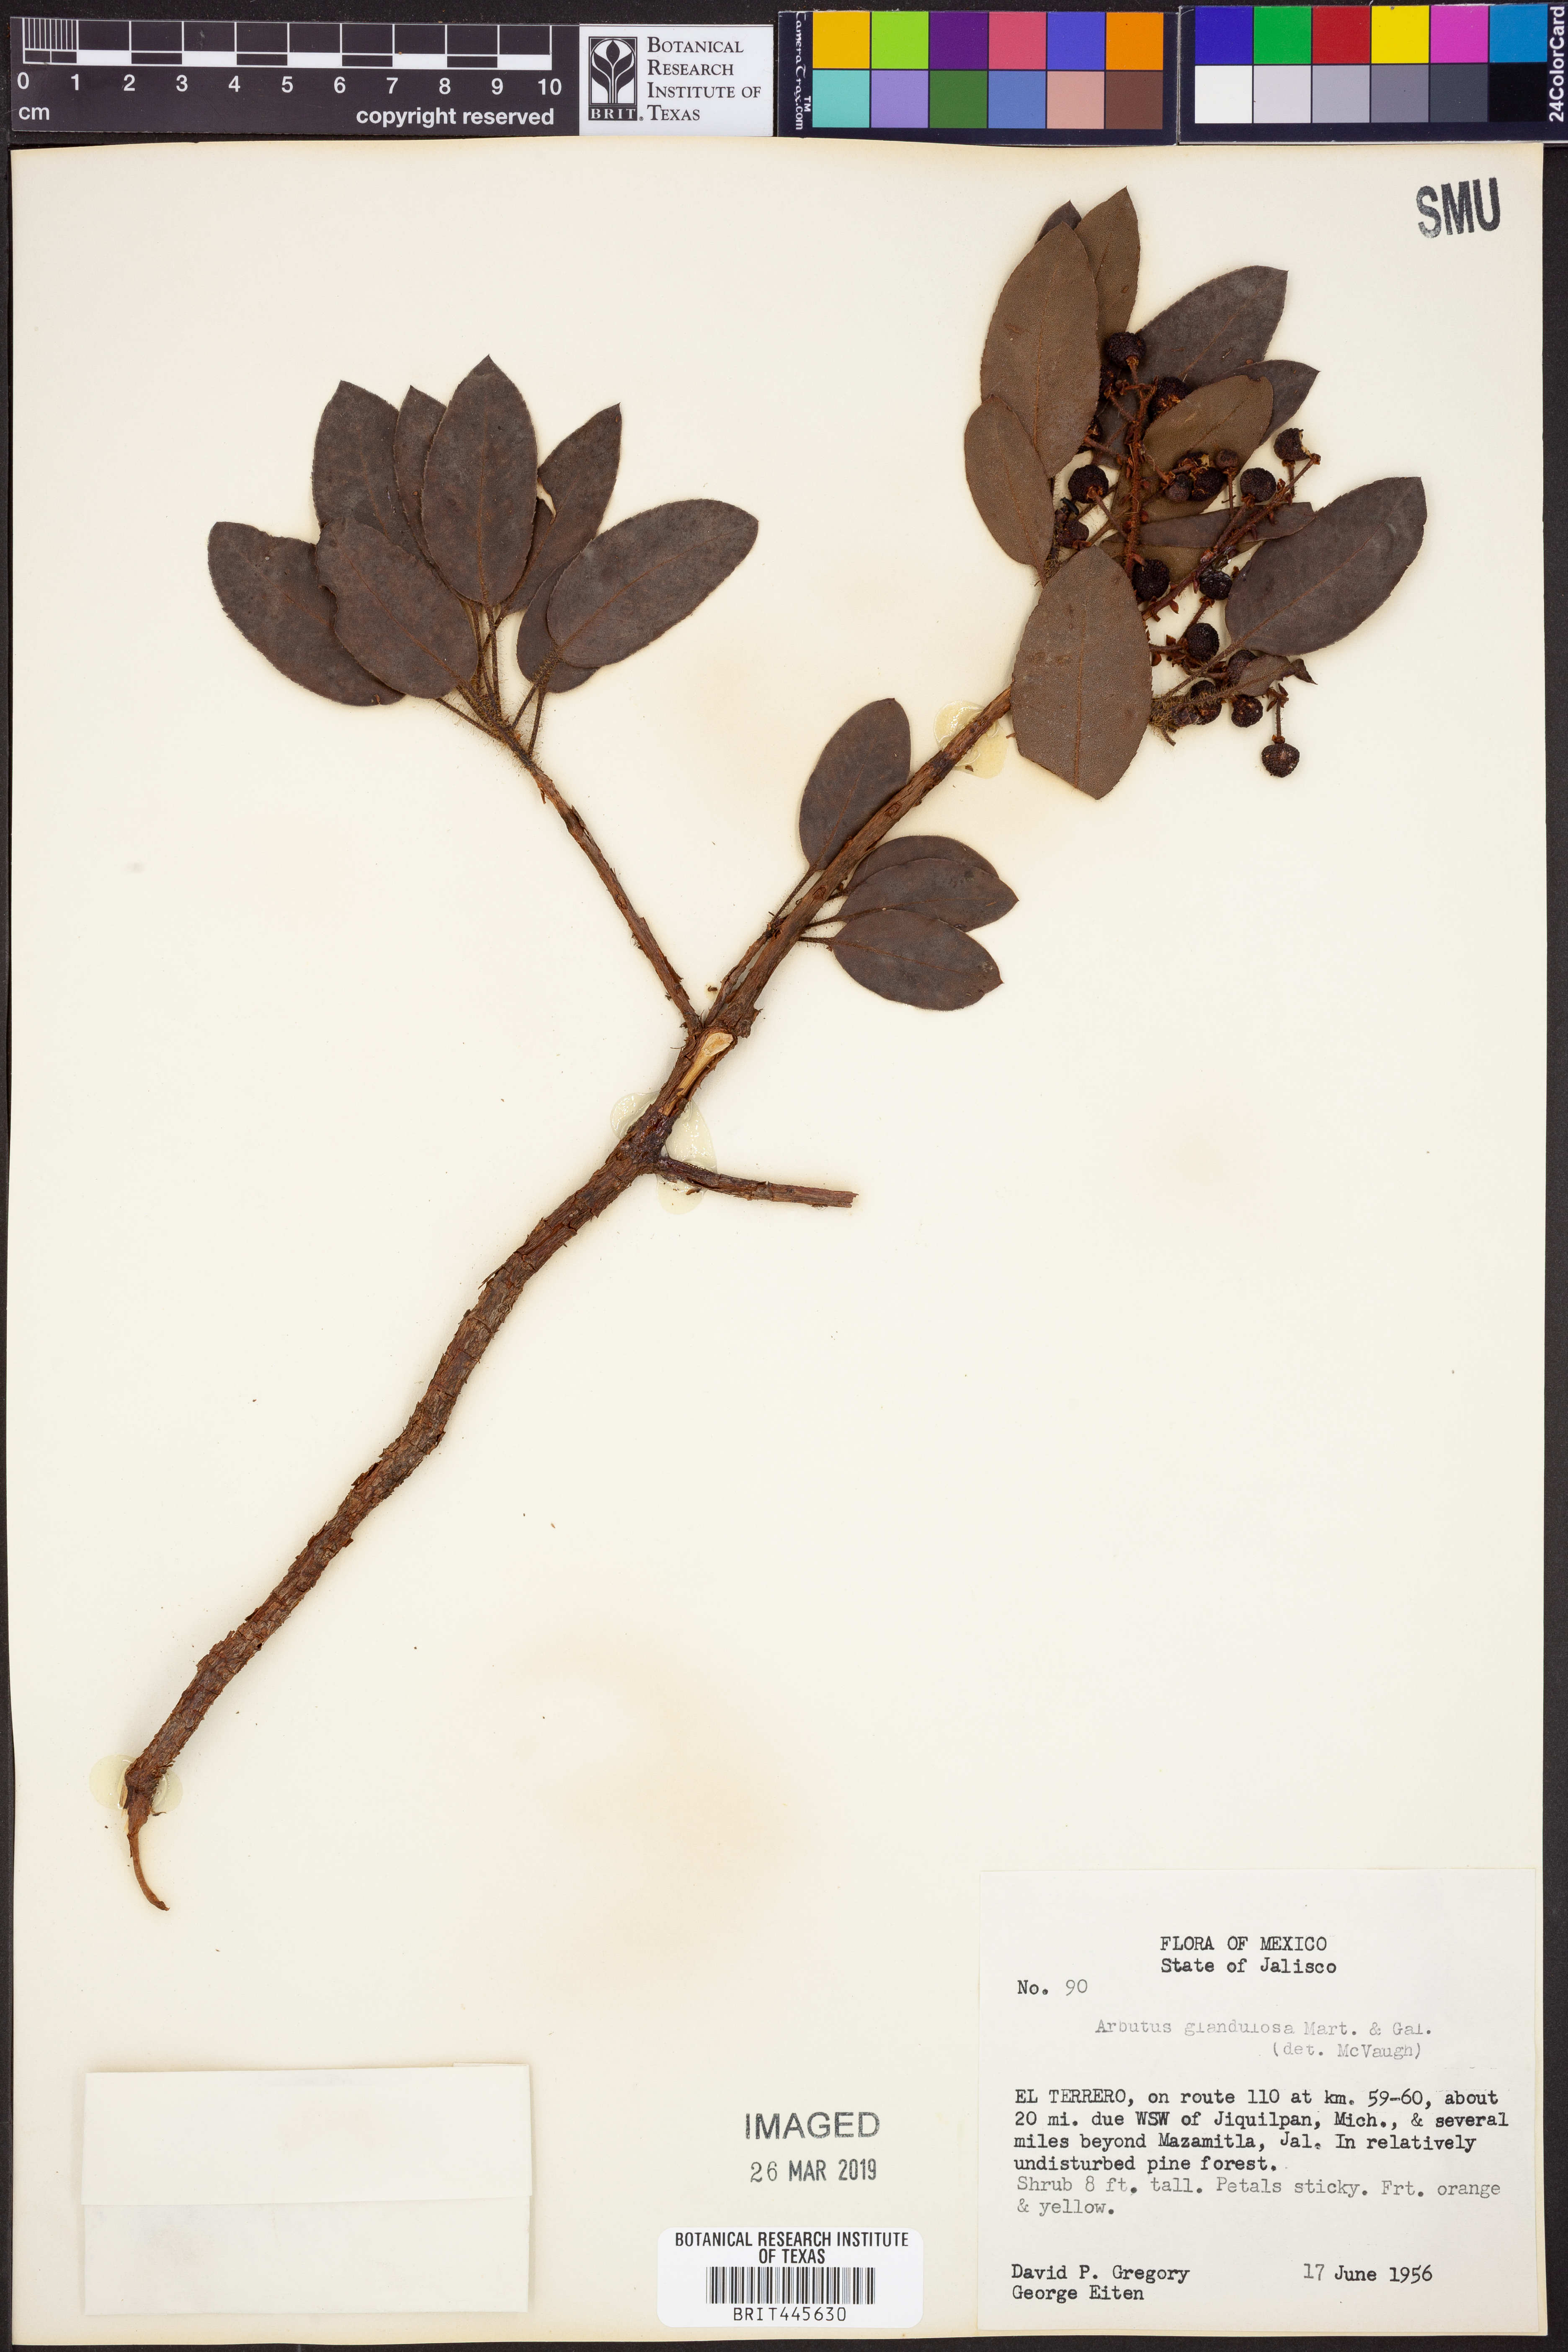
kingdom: Plantae
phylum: Tracheophyta
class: Magnoliopsida
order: Ericales
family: Ericaceae
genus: Arbutus
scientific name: Arbutus xalapensis
